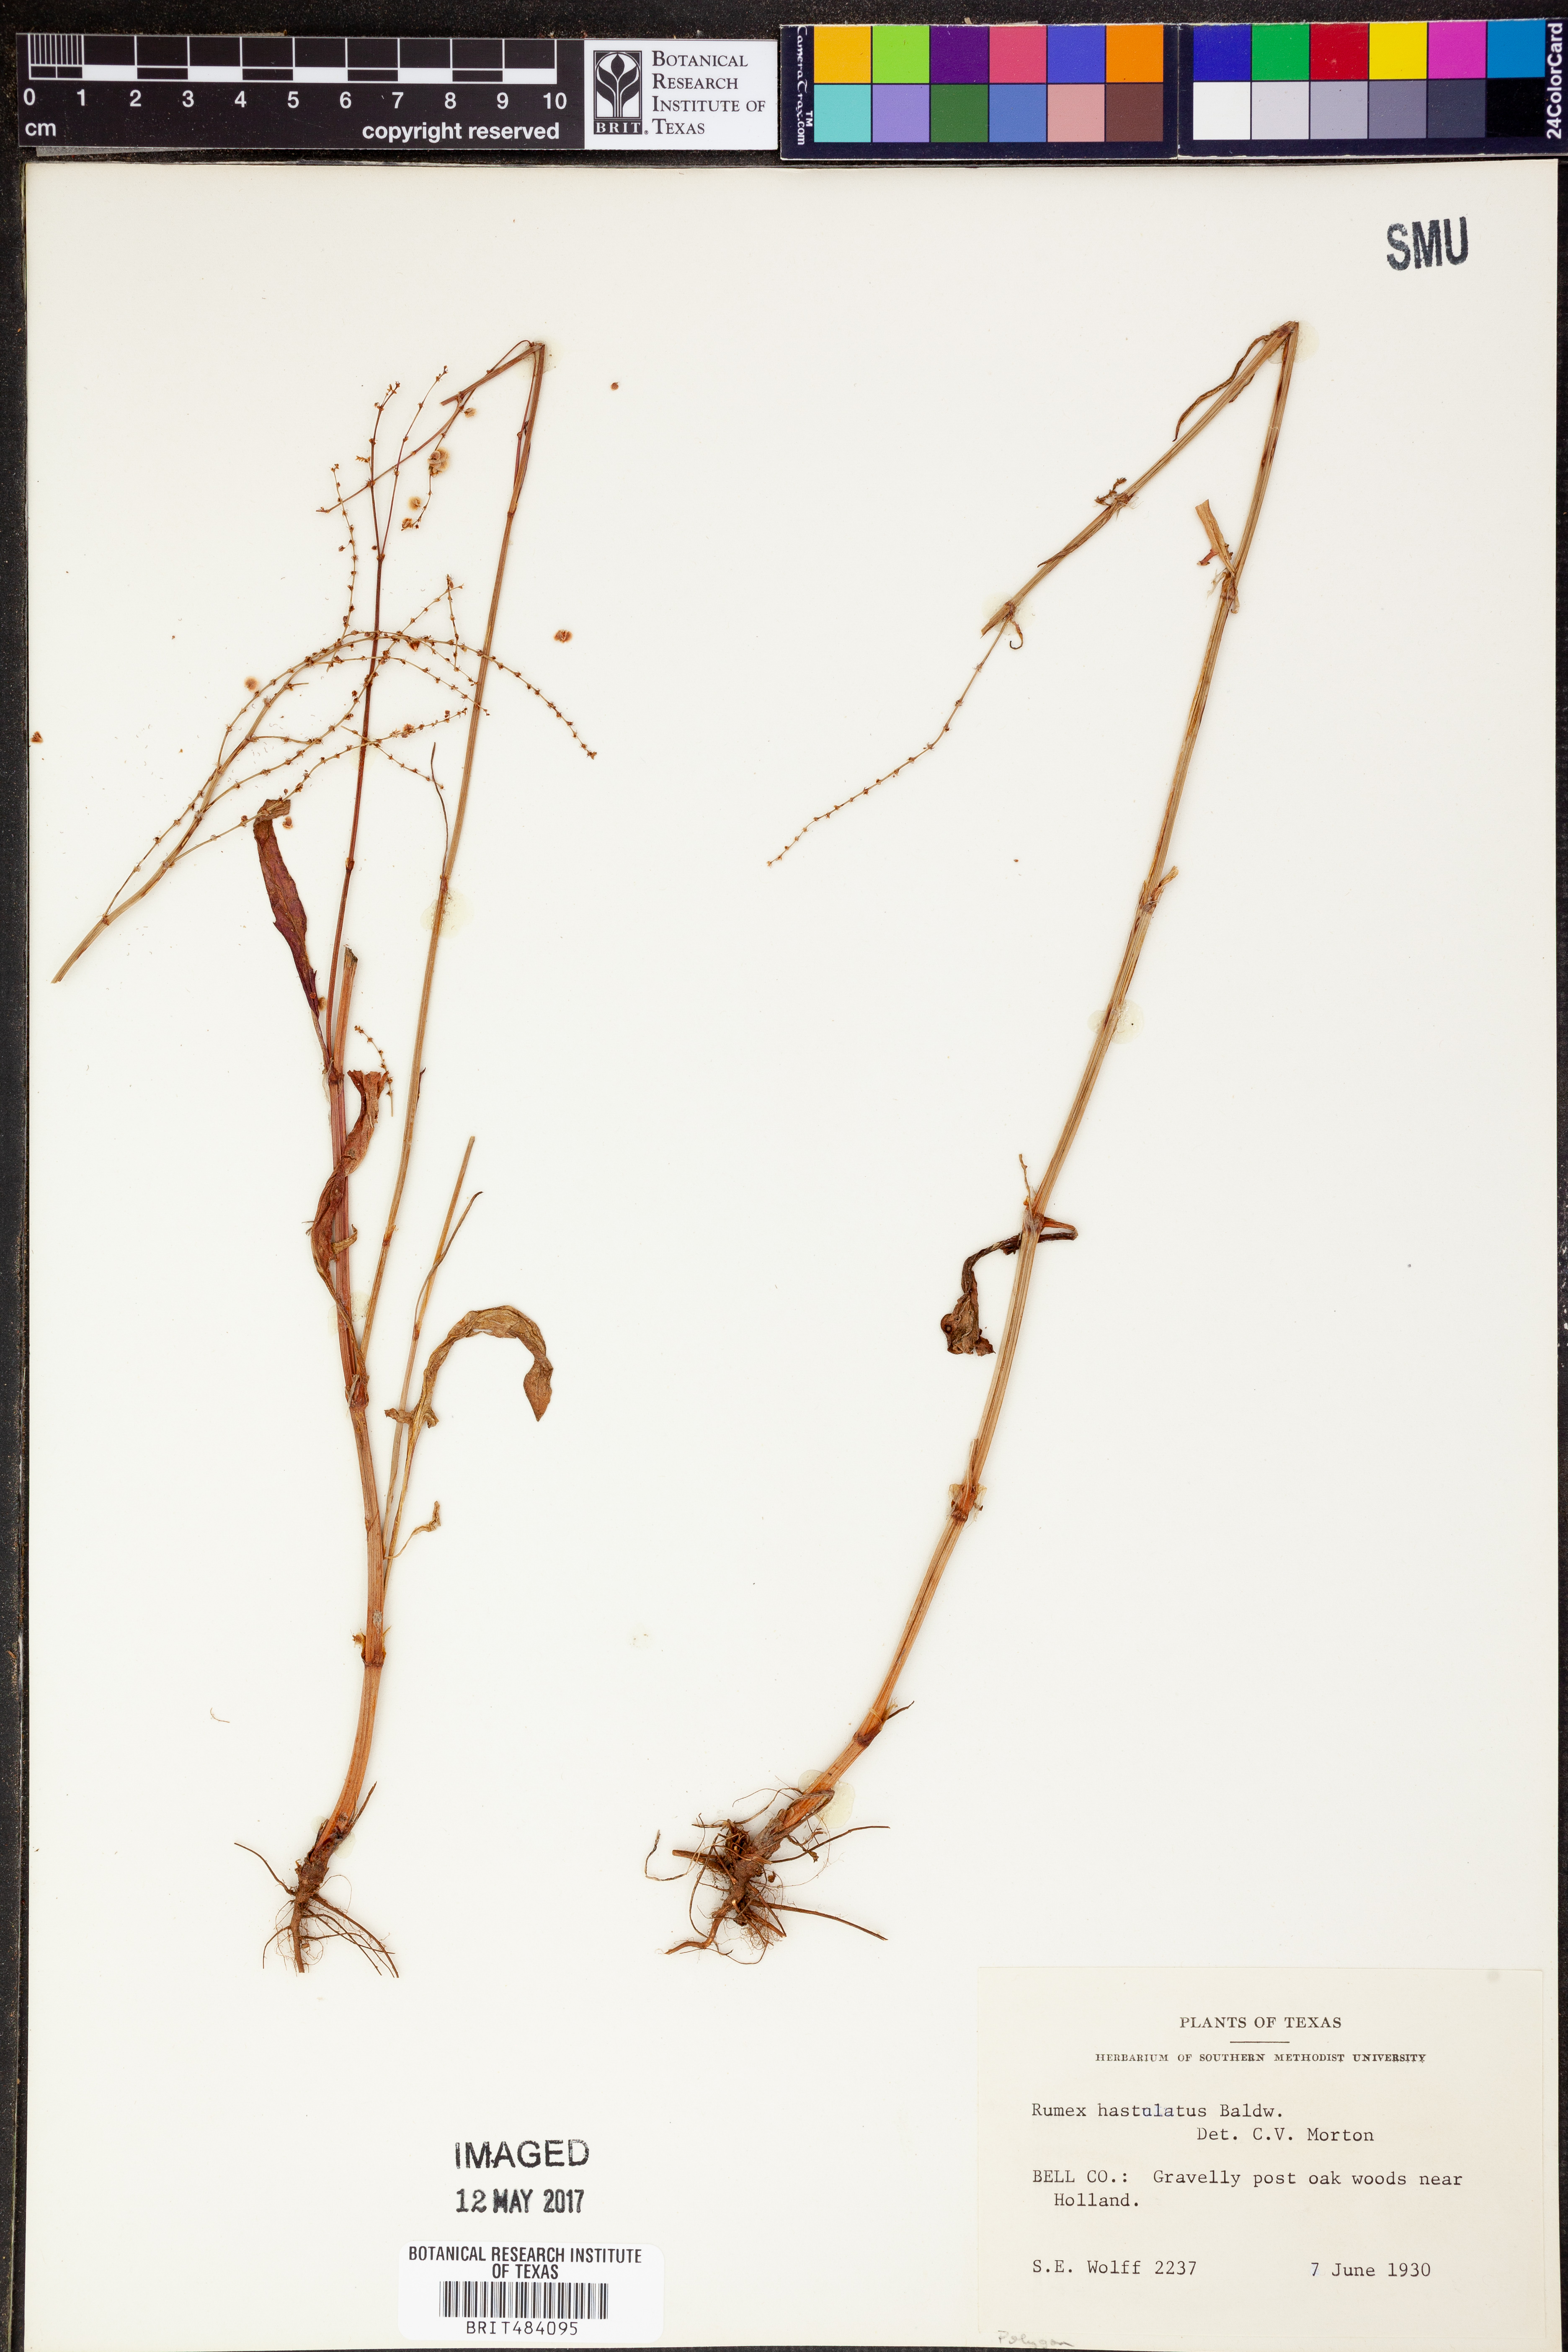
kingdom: Plantae
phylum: Tracheophyta
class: Magnoliopsida
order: Caryophyllales
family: Polygonaceae
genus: Muehlenbeckia
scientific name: Muehlenbeckia hastulata
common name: Wirevine
